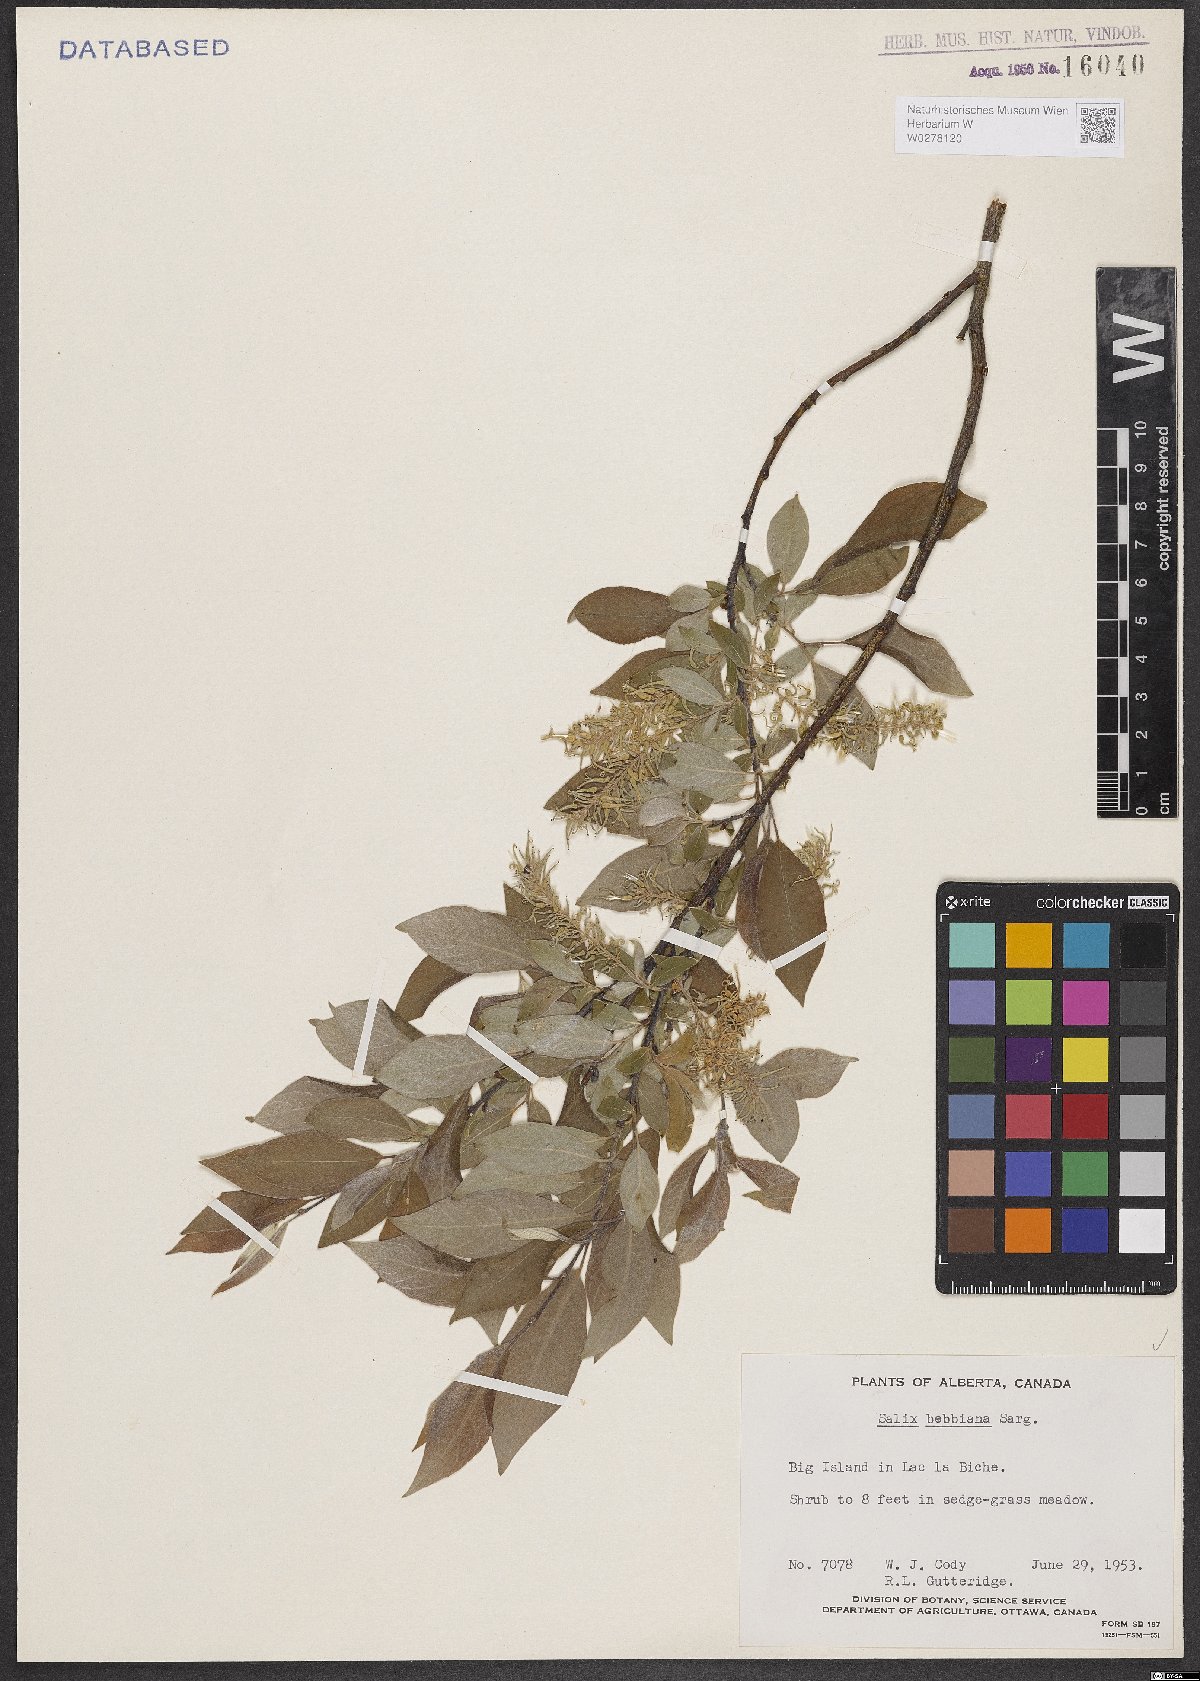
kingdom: Plantae
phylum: Tracheophyta
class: Magnoliopsida
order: Malpighiales
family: Salicaceae
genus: Salix
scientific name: Salix bebbiana
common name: Bebb's willow
